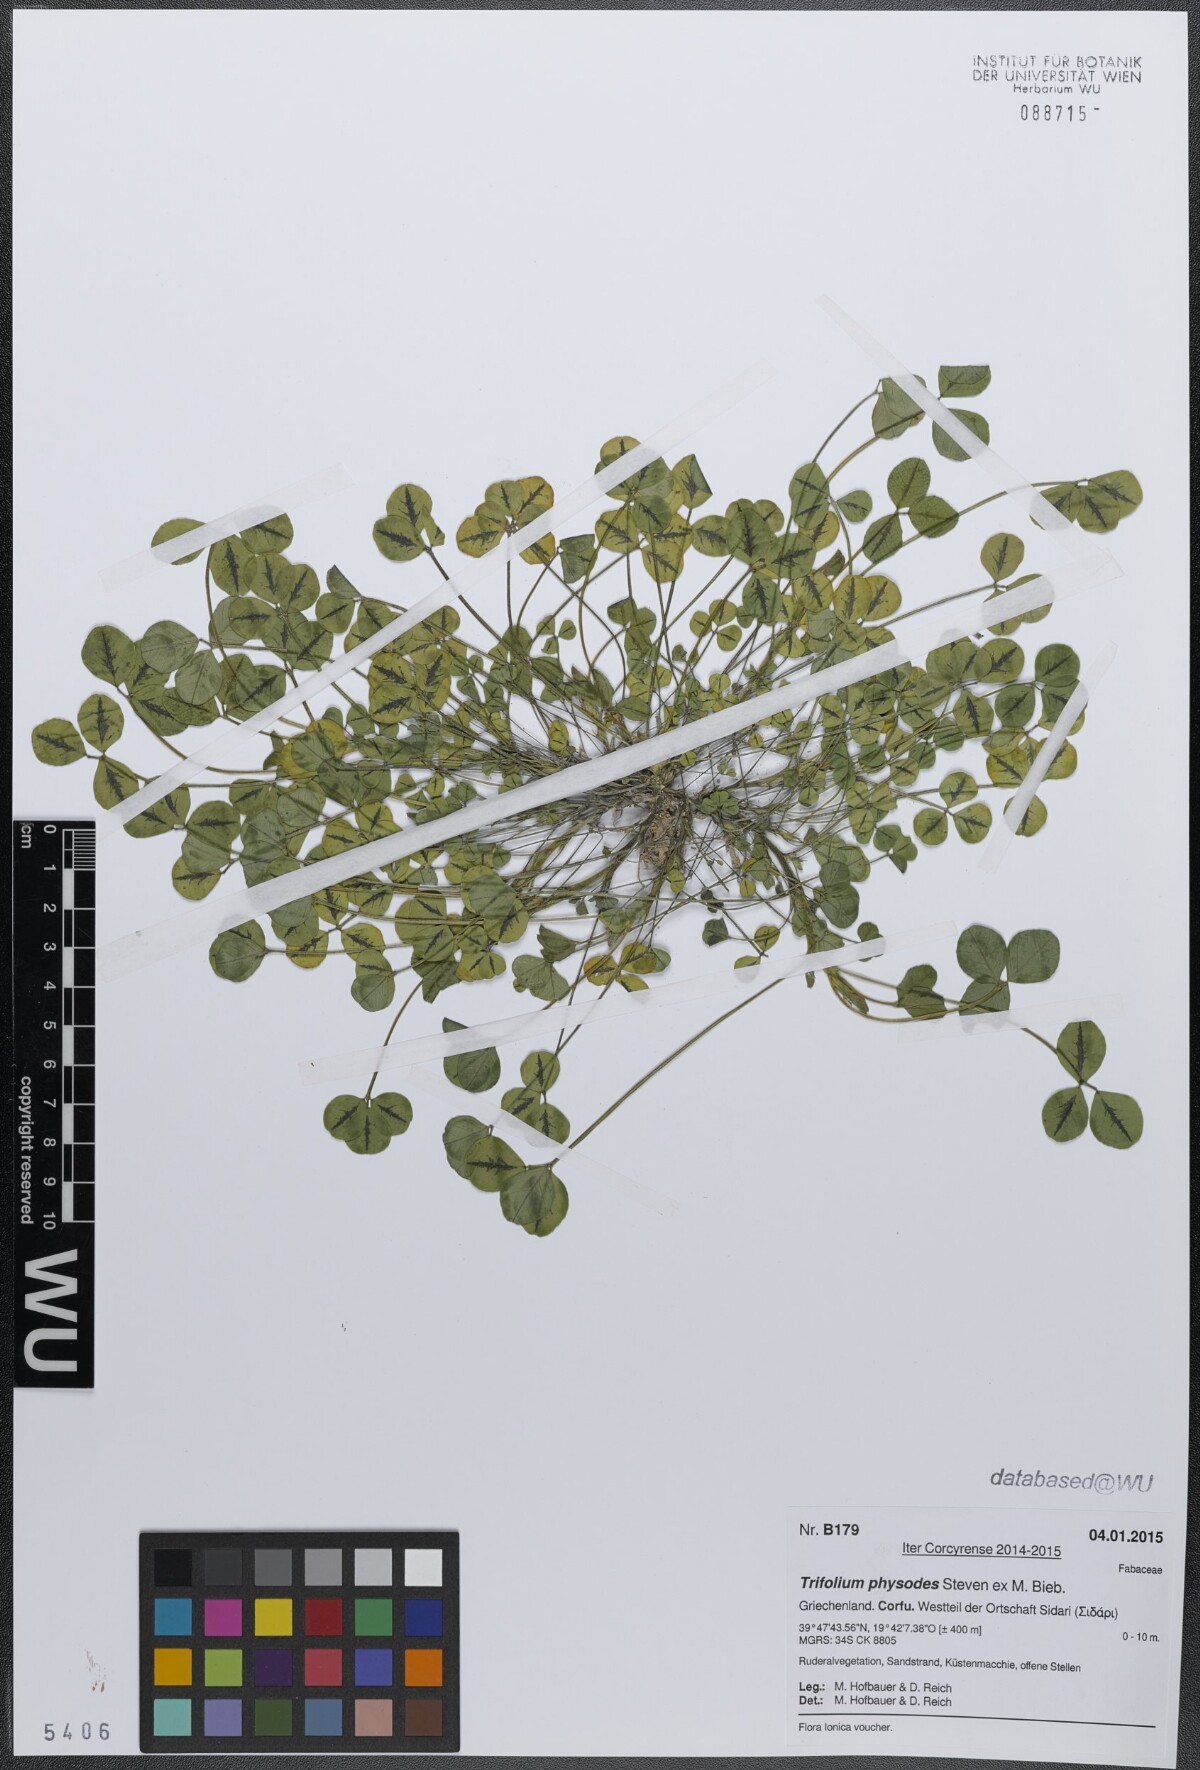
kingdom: Plantae
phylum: Tracheophyta
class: Magnoliopsida
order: Fabales
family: Fabaceae
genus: Trifolium
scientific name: Trifolium physodes
